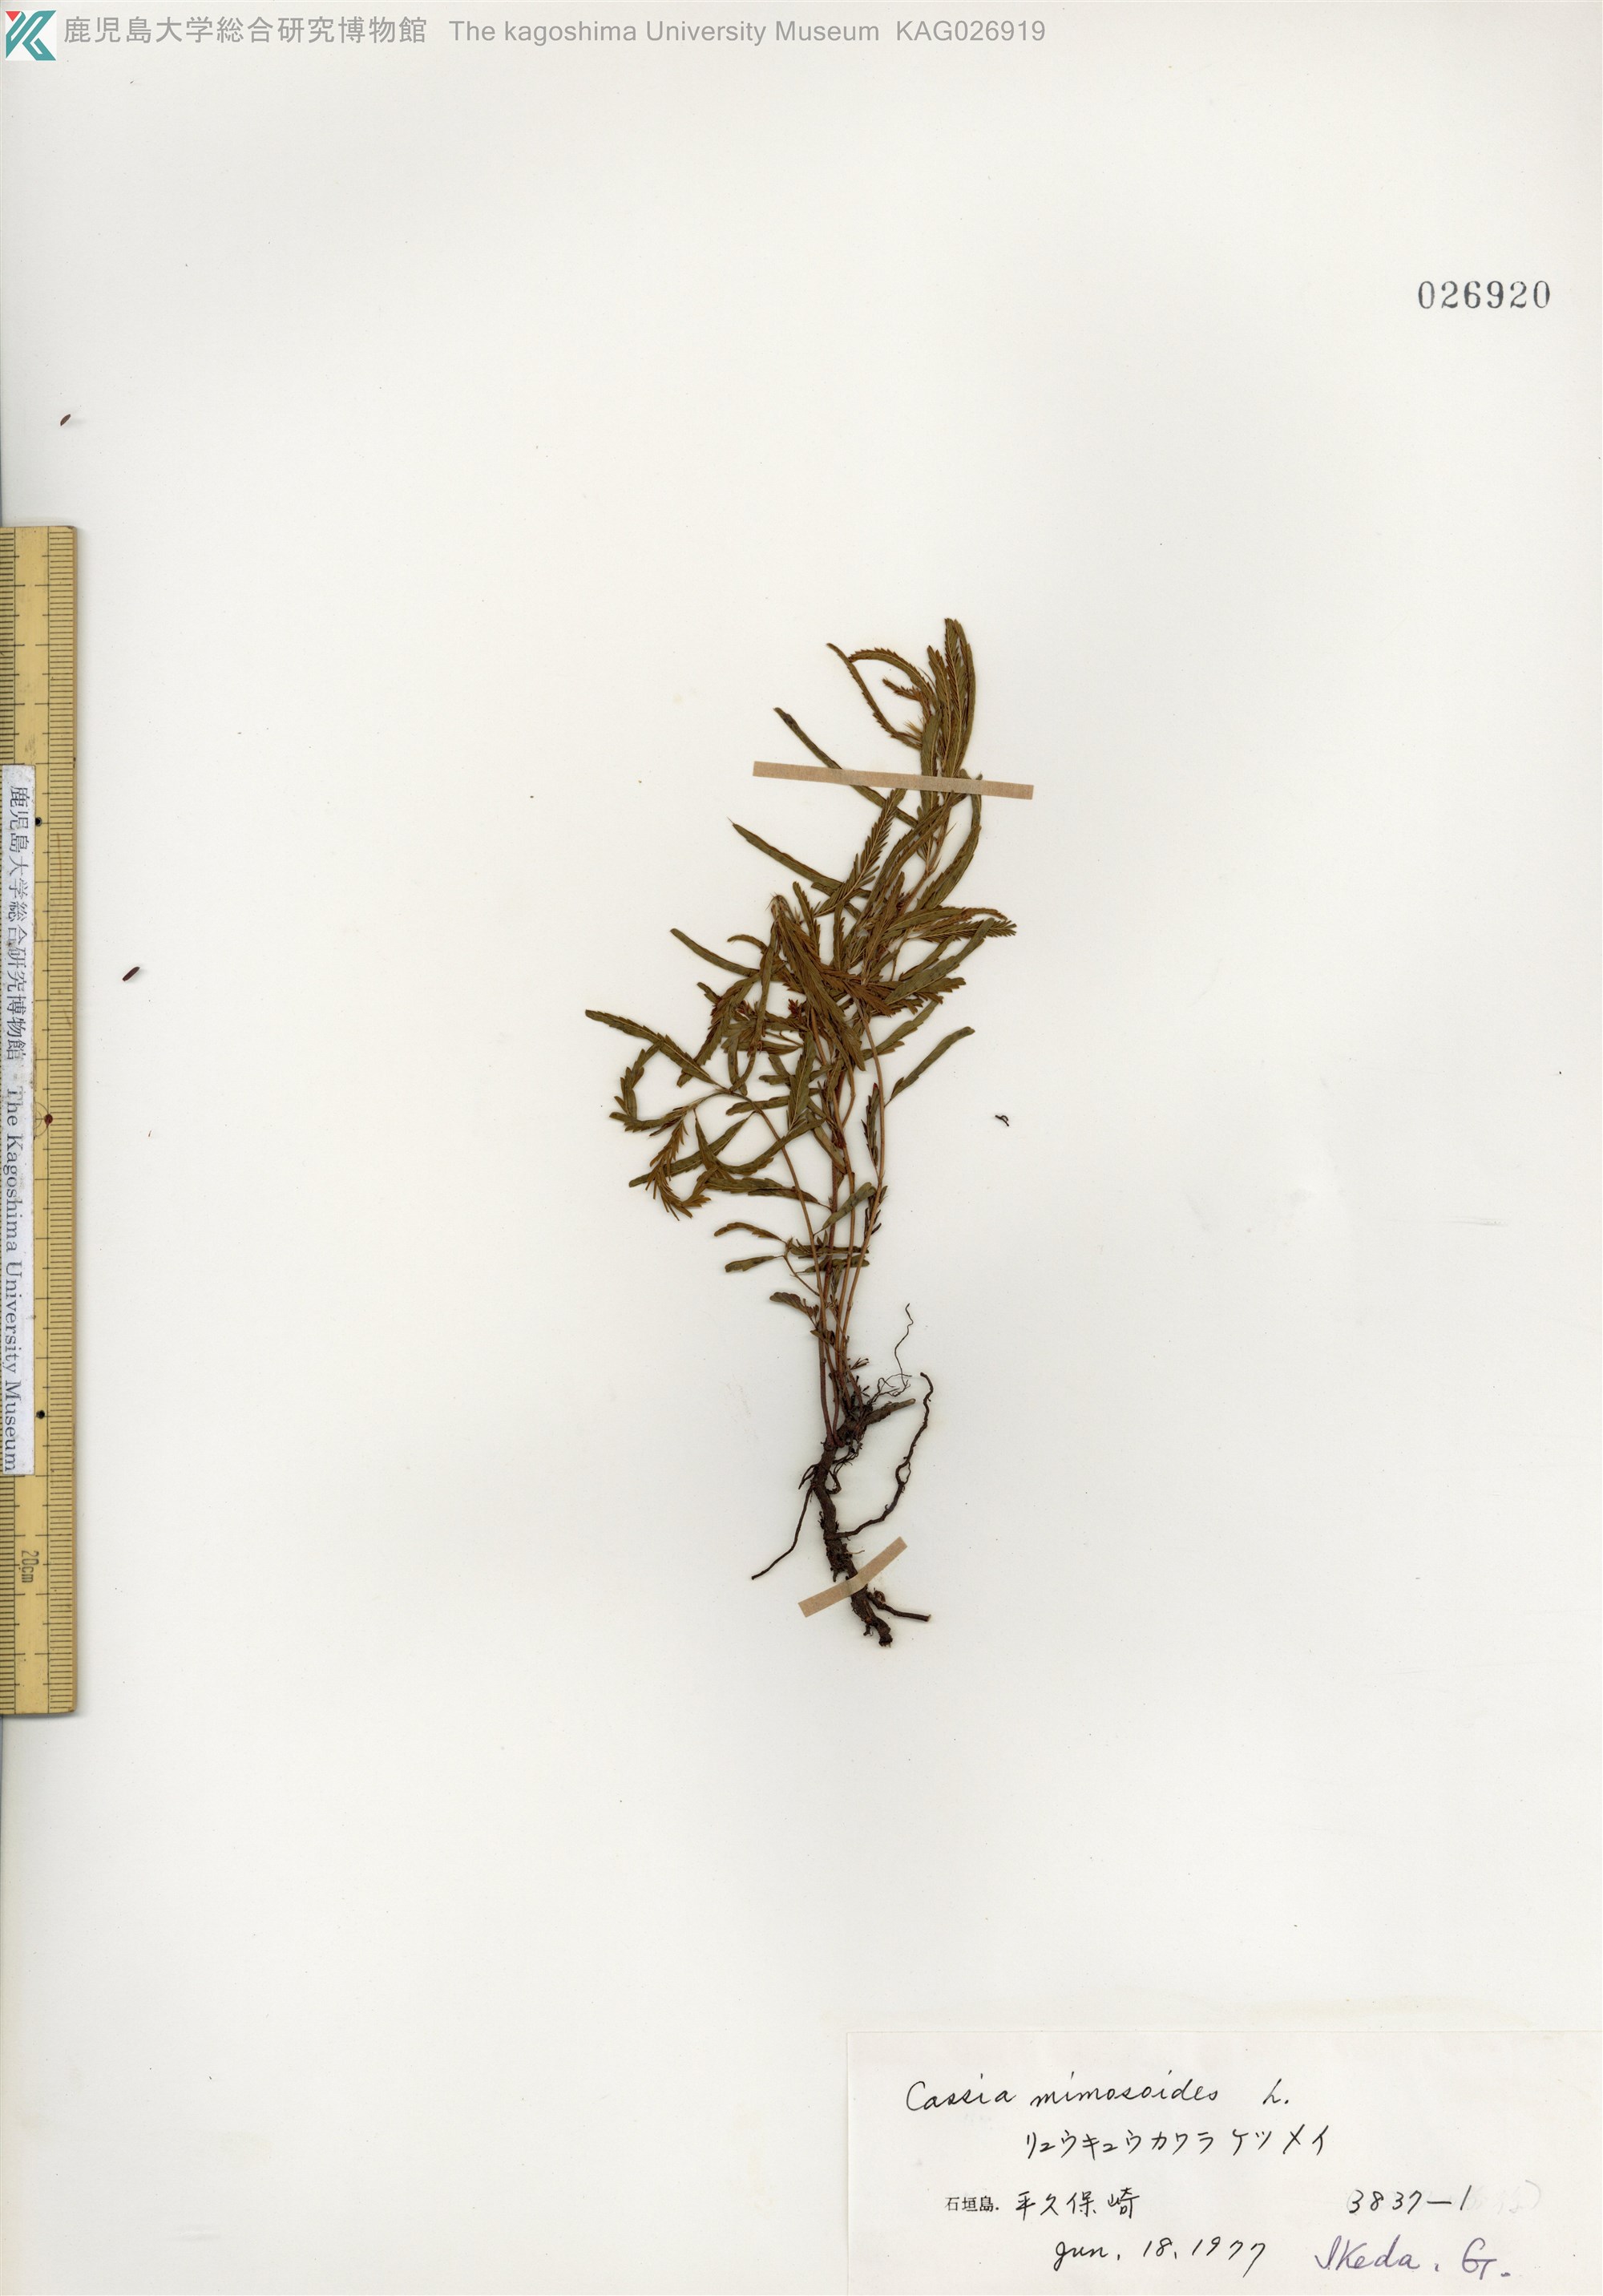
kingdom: Plantae
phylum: Tracheophyta
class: Magnoliopsida
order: Fabales
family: Fabaceae
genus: Chamaecrista
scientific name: Chamaecrista nomame
